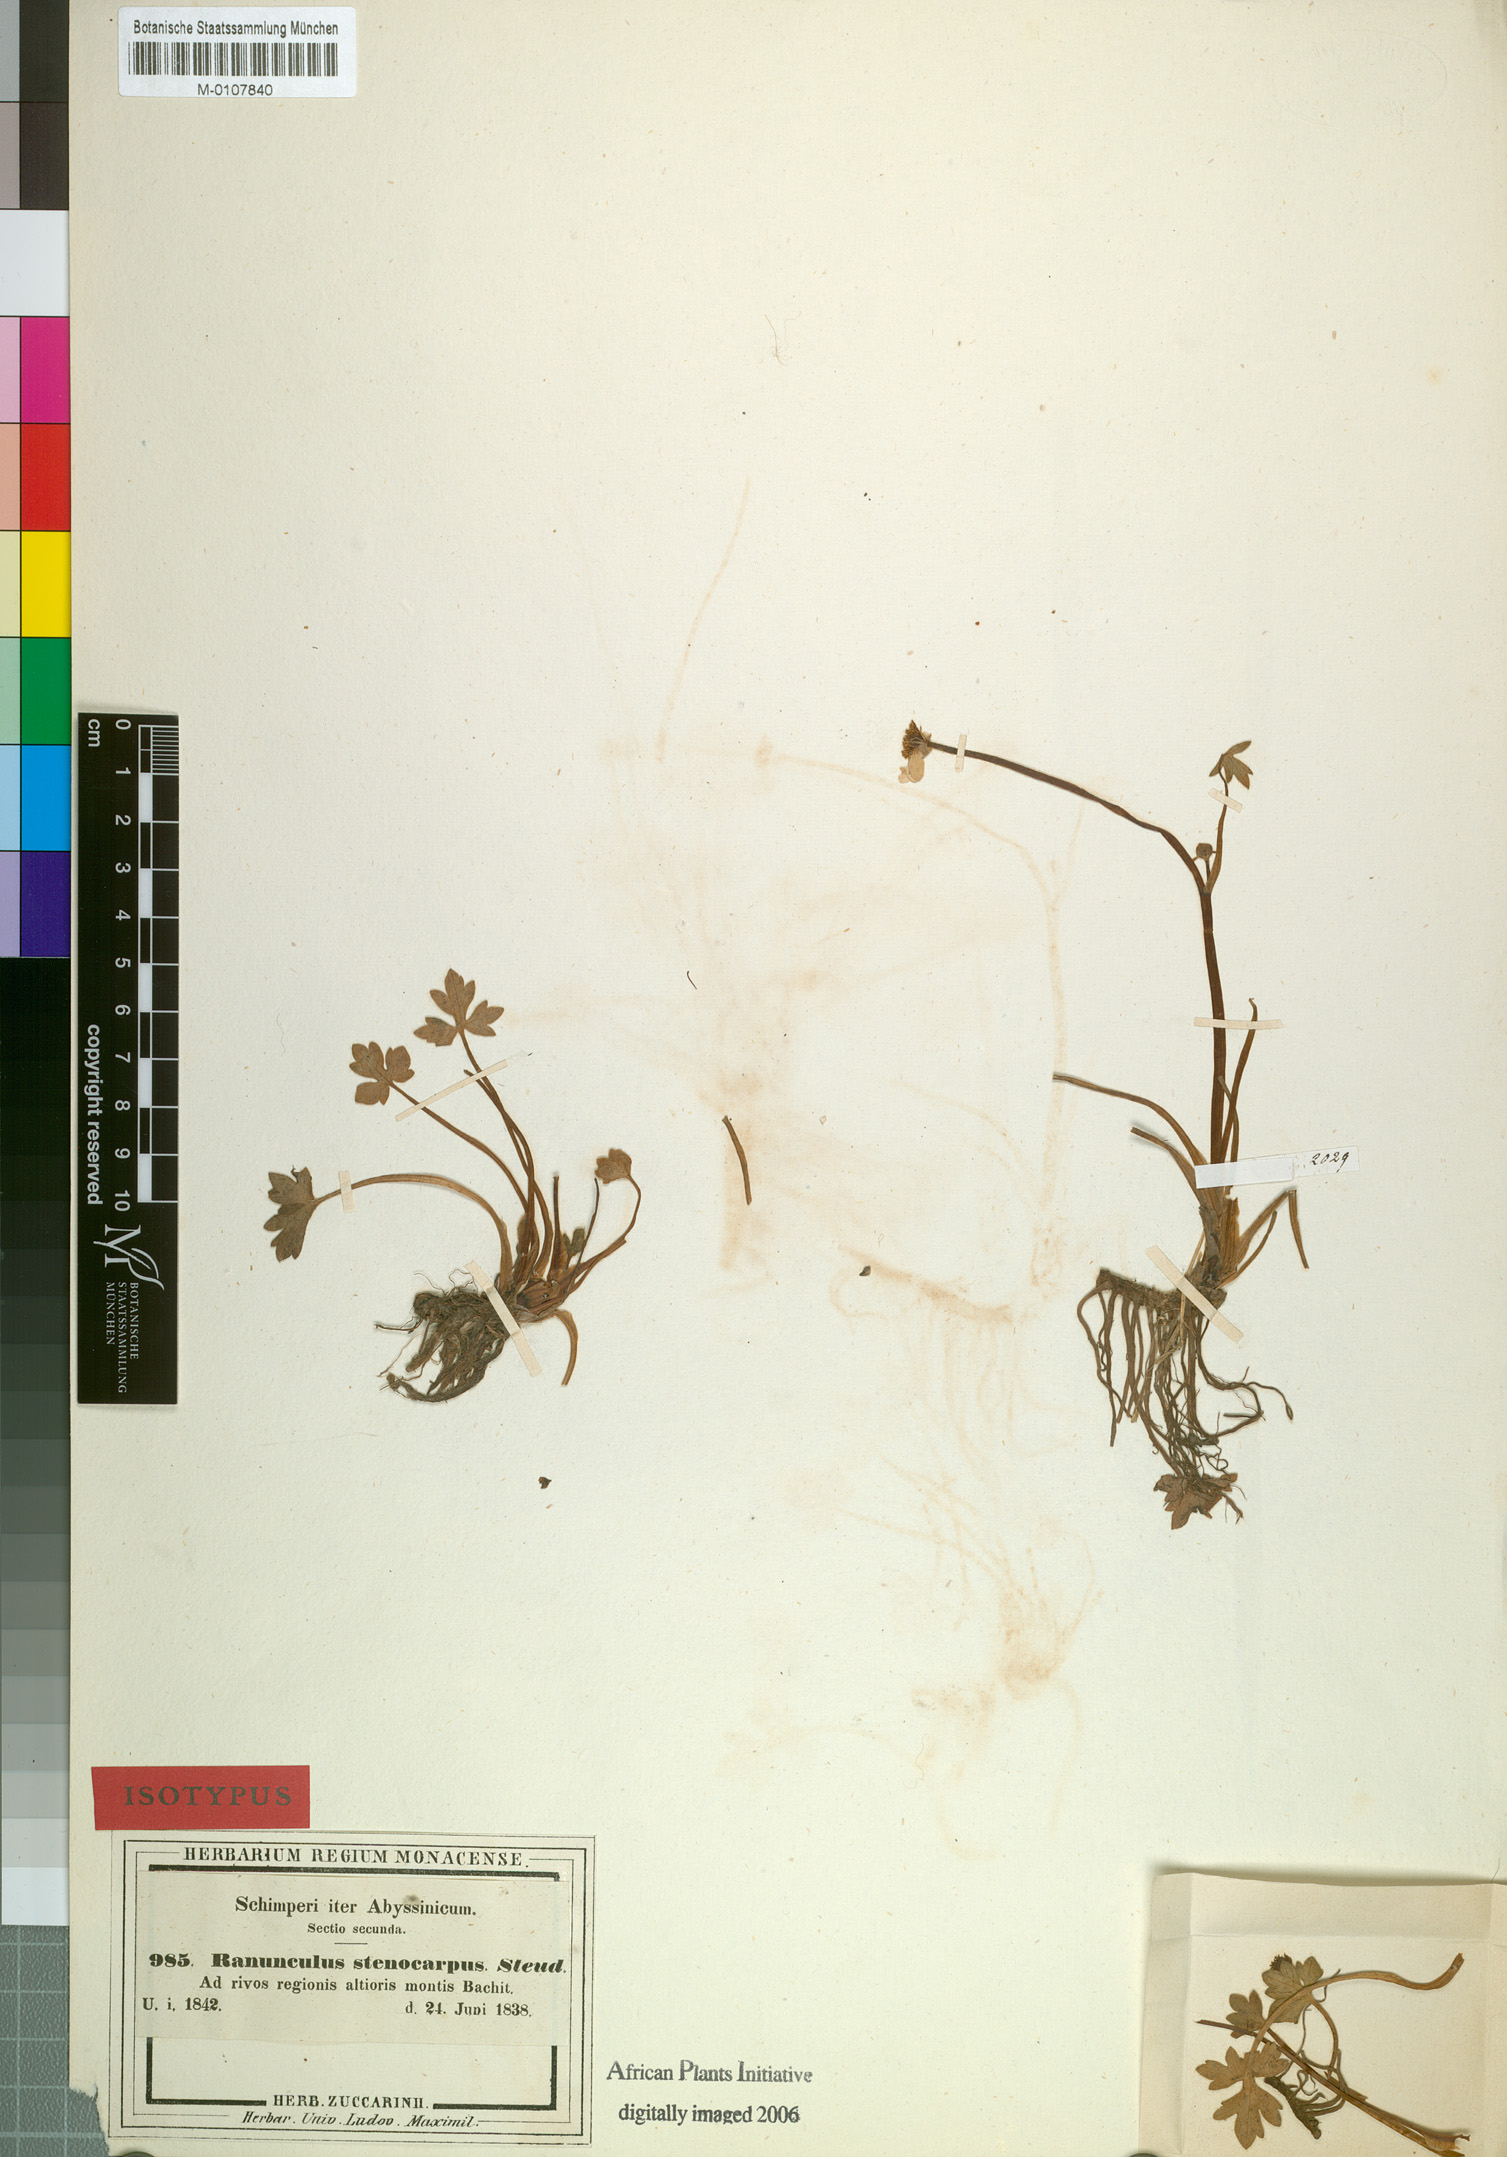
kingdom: Plantae
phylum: Tracheophyta
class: Magnoliopsida
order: Ranunculales
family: Ranunculaceae
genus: Ranunculus
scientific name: Ranunculus tembensis
